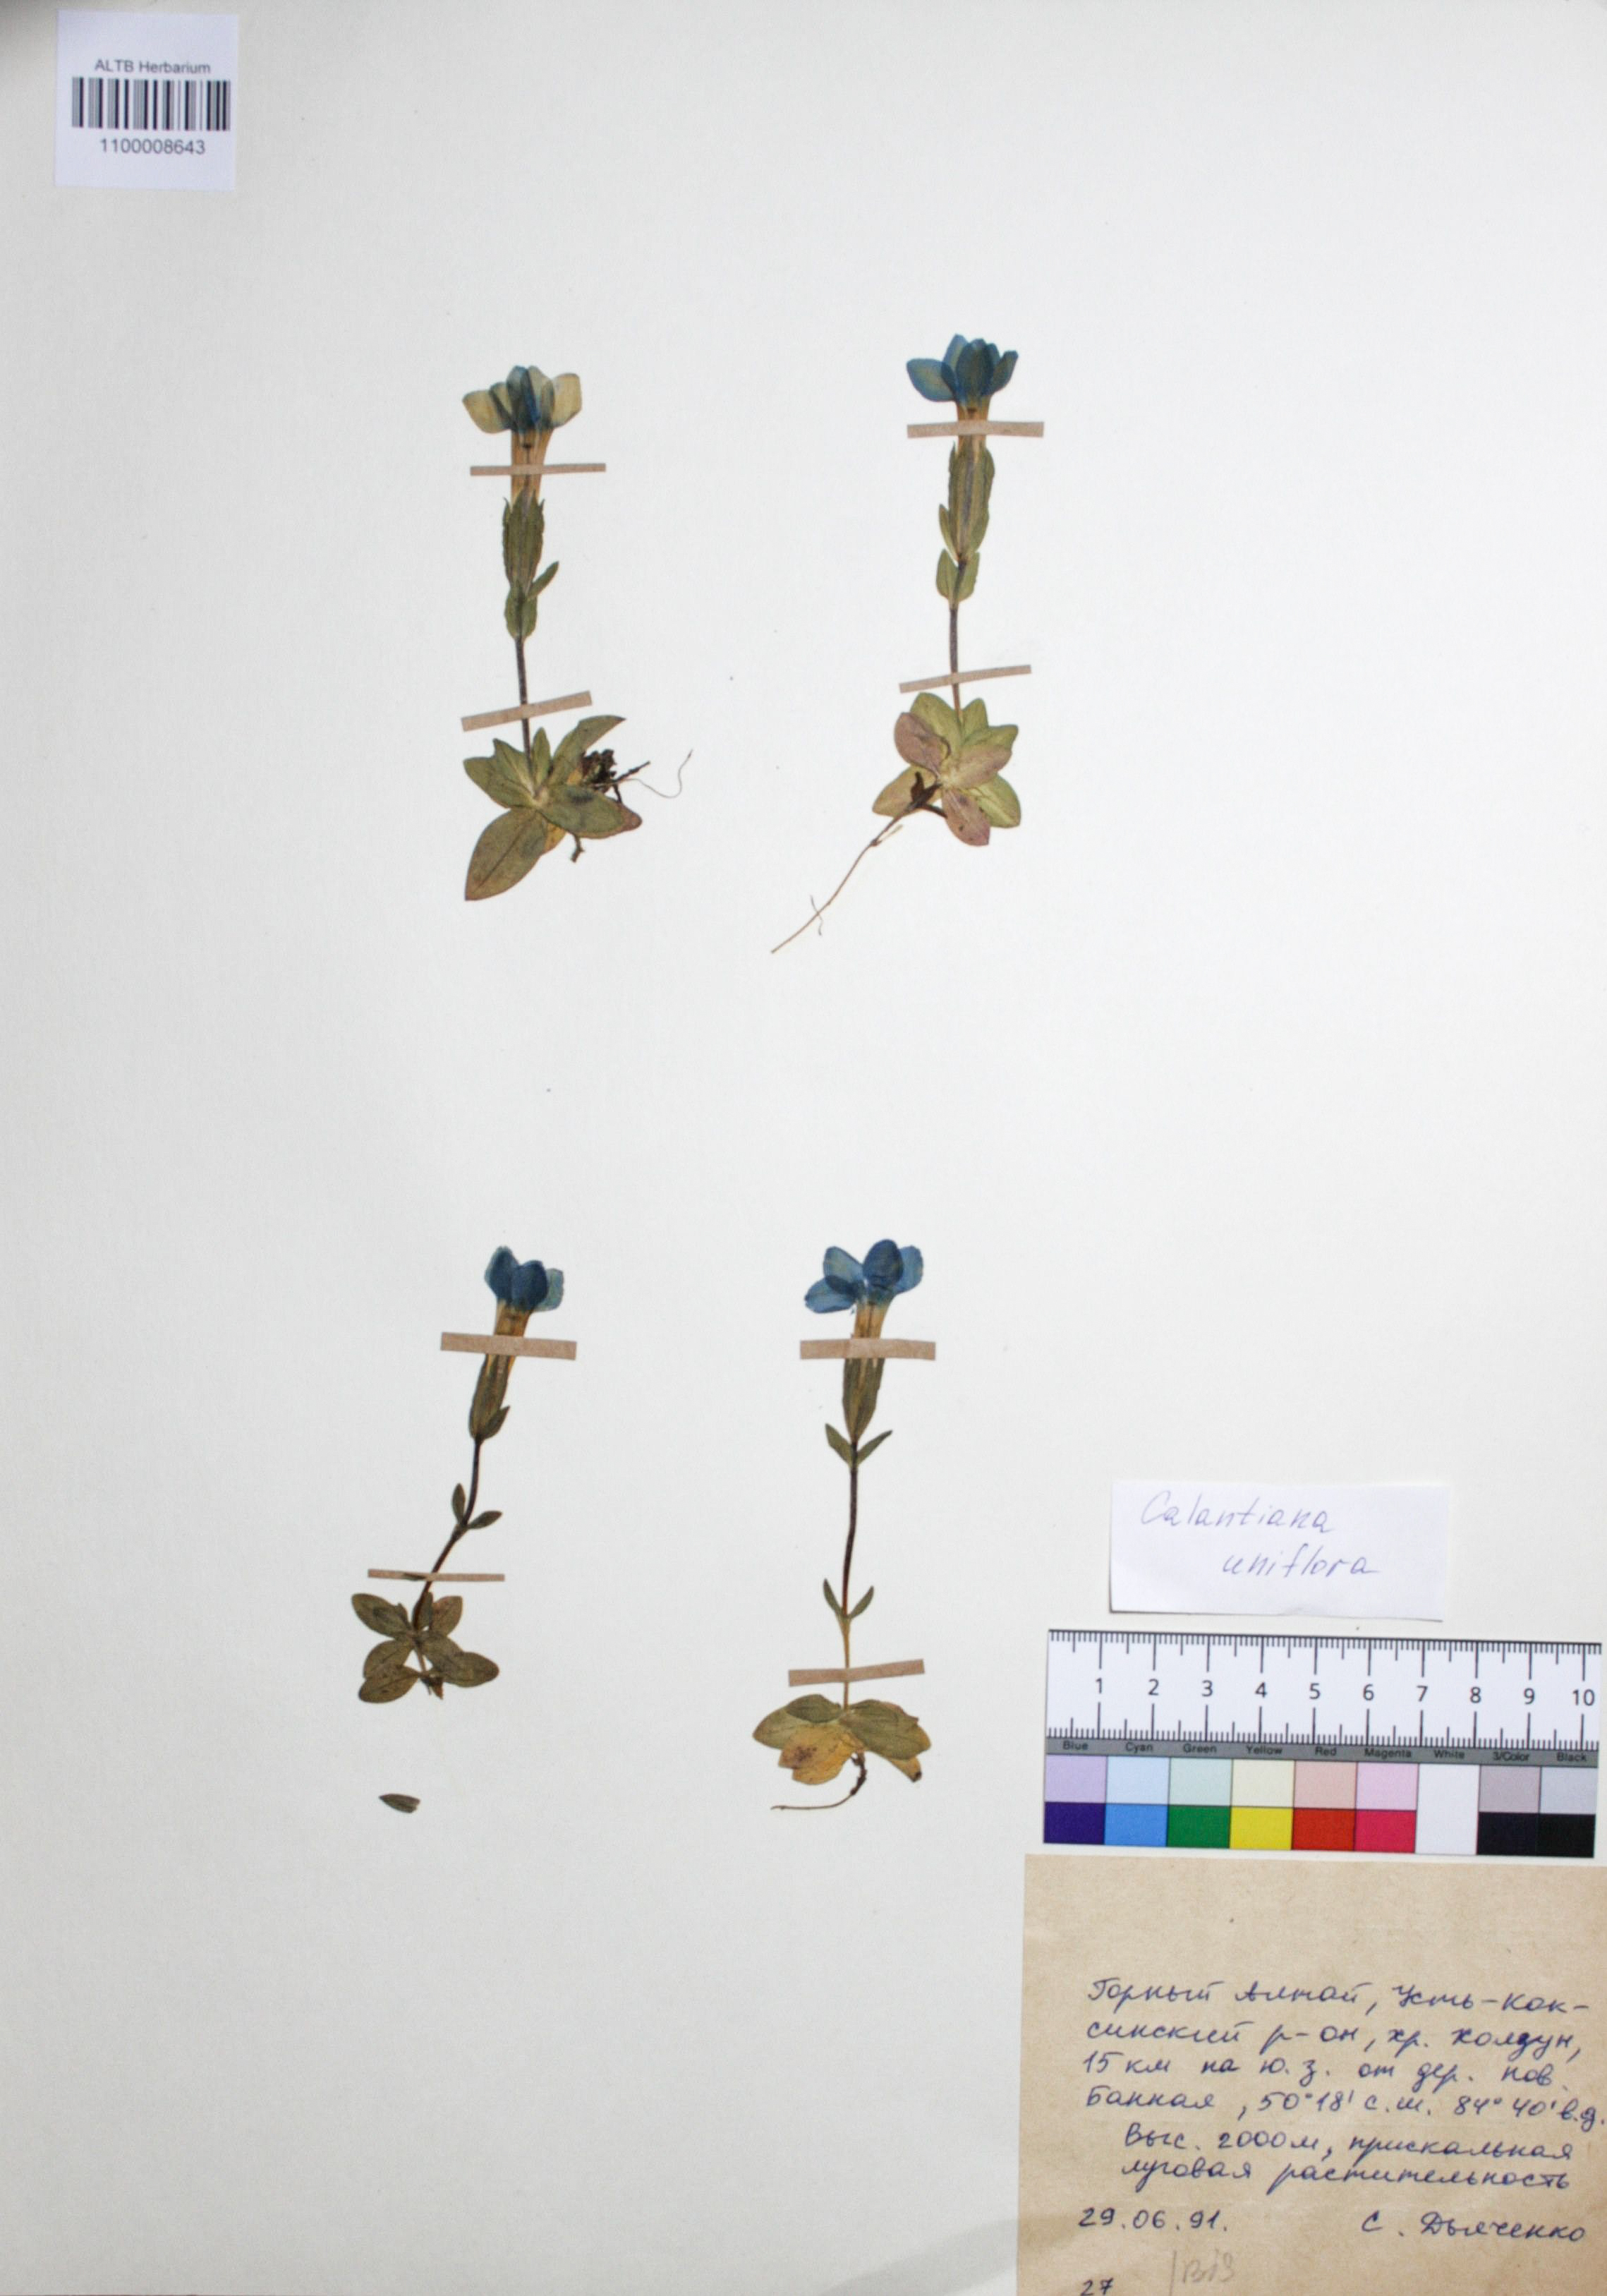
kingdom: Plantae
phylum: Tracheophyta
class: Magnoliopsida
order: Gentianales
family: Gentianaceae
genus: Gentiana
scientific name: Gentiana uniflora
